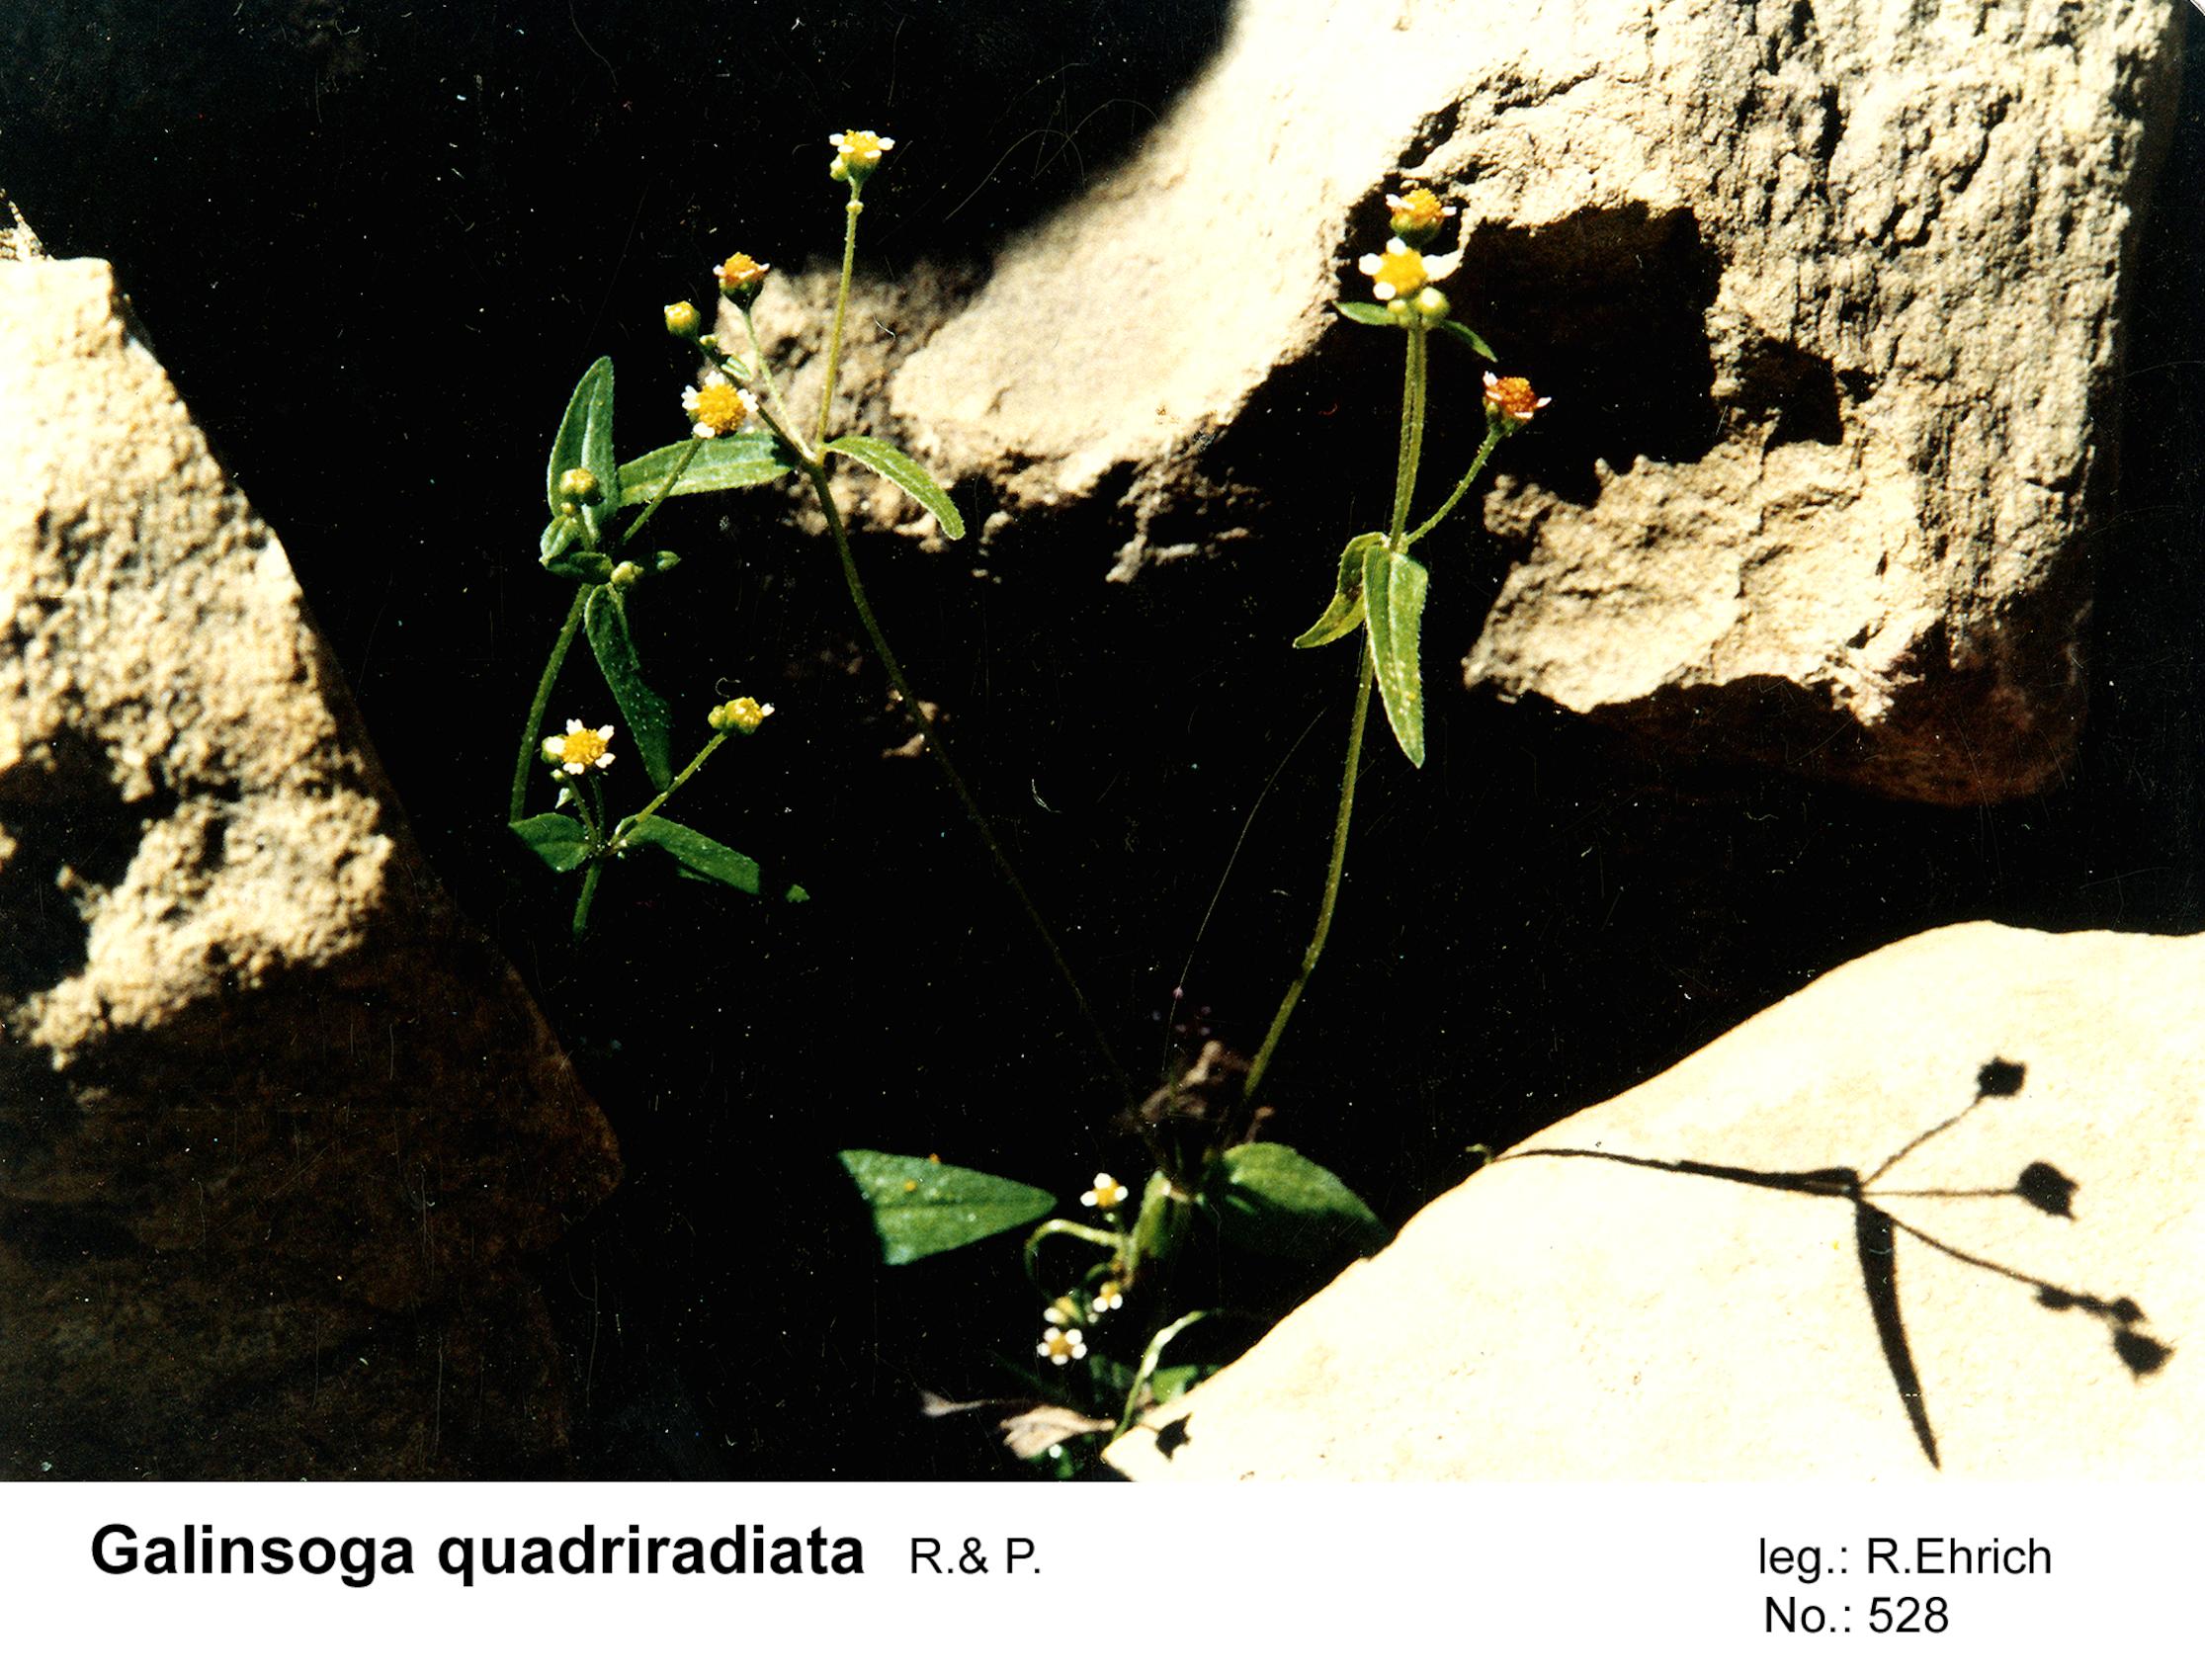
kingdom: Plantae
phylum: Tracheophyta
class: Magnoliopsida
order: Asterales
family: Asteraceae
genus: Galinsoga
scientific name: Galinsoga quadriradiata
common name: Shaggy soldier
